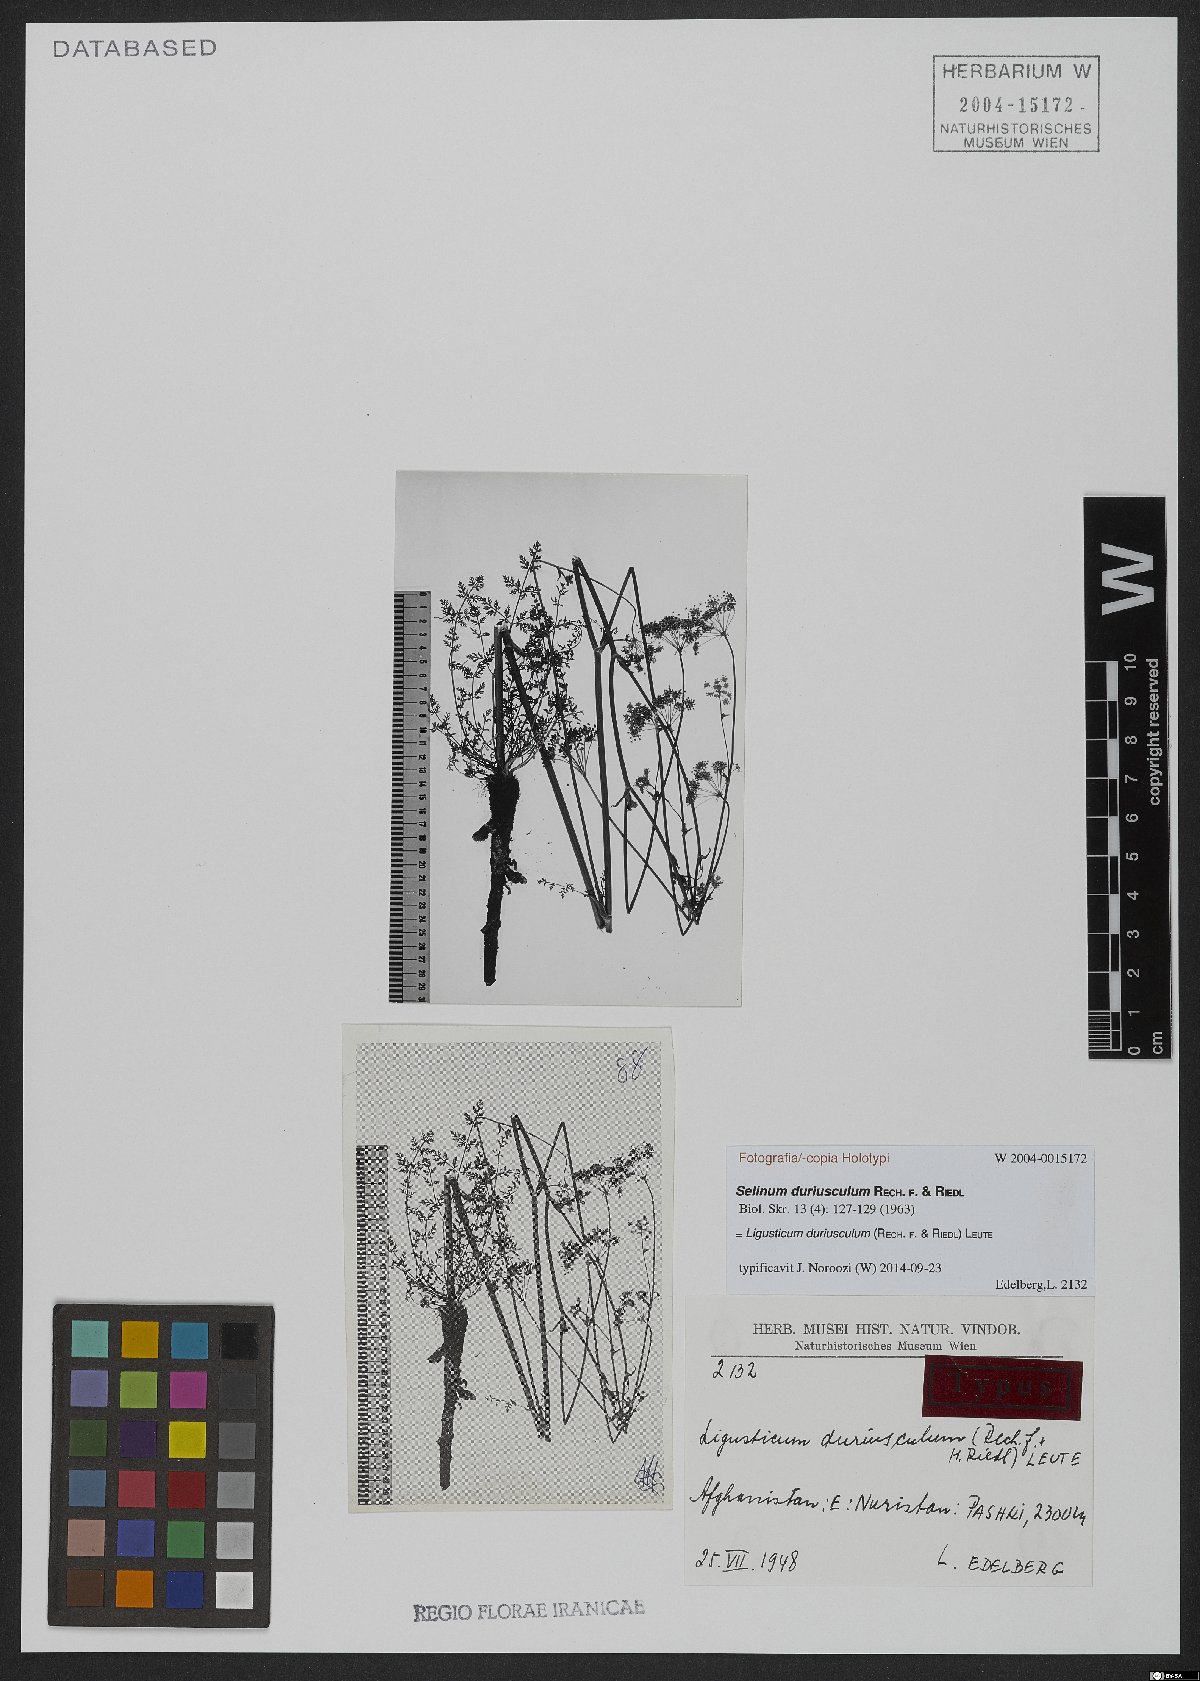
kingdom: Plantae
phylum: Tracheophyta
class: Magnoliopsida
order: Apiales
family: Apiaceae
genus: Oreocome
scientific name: Oreocome duriuscula
